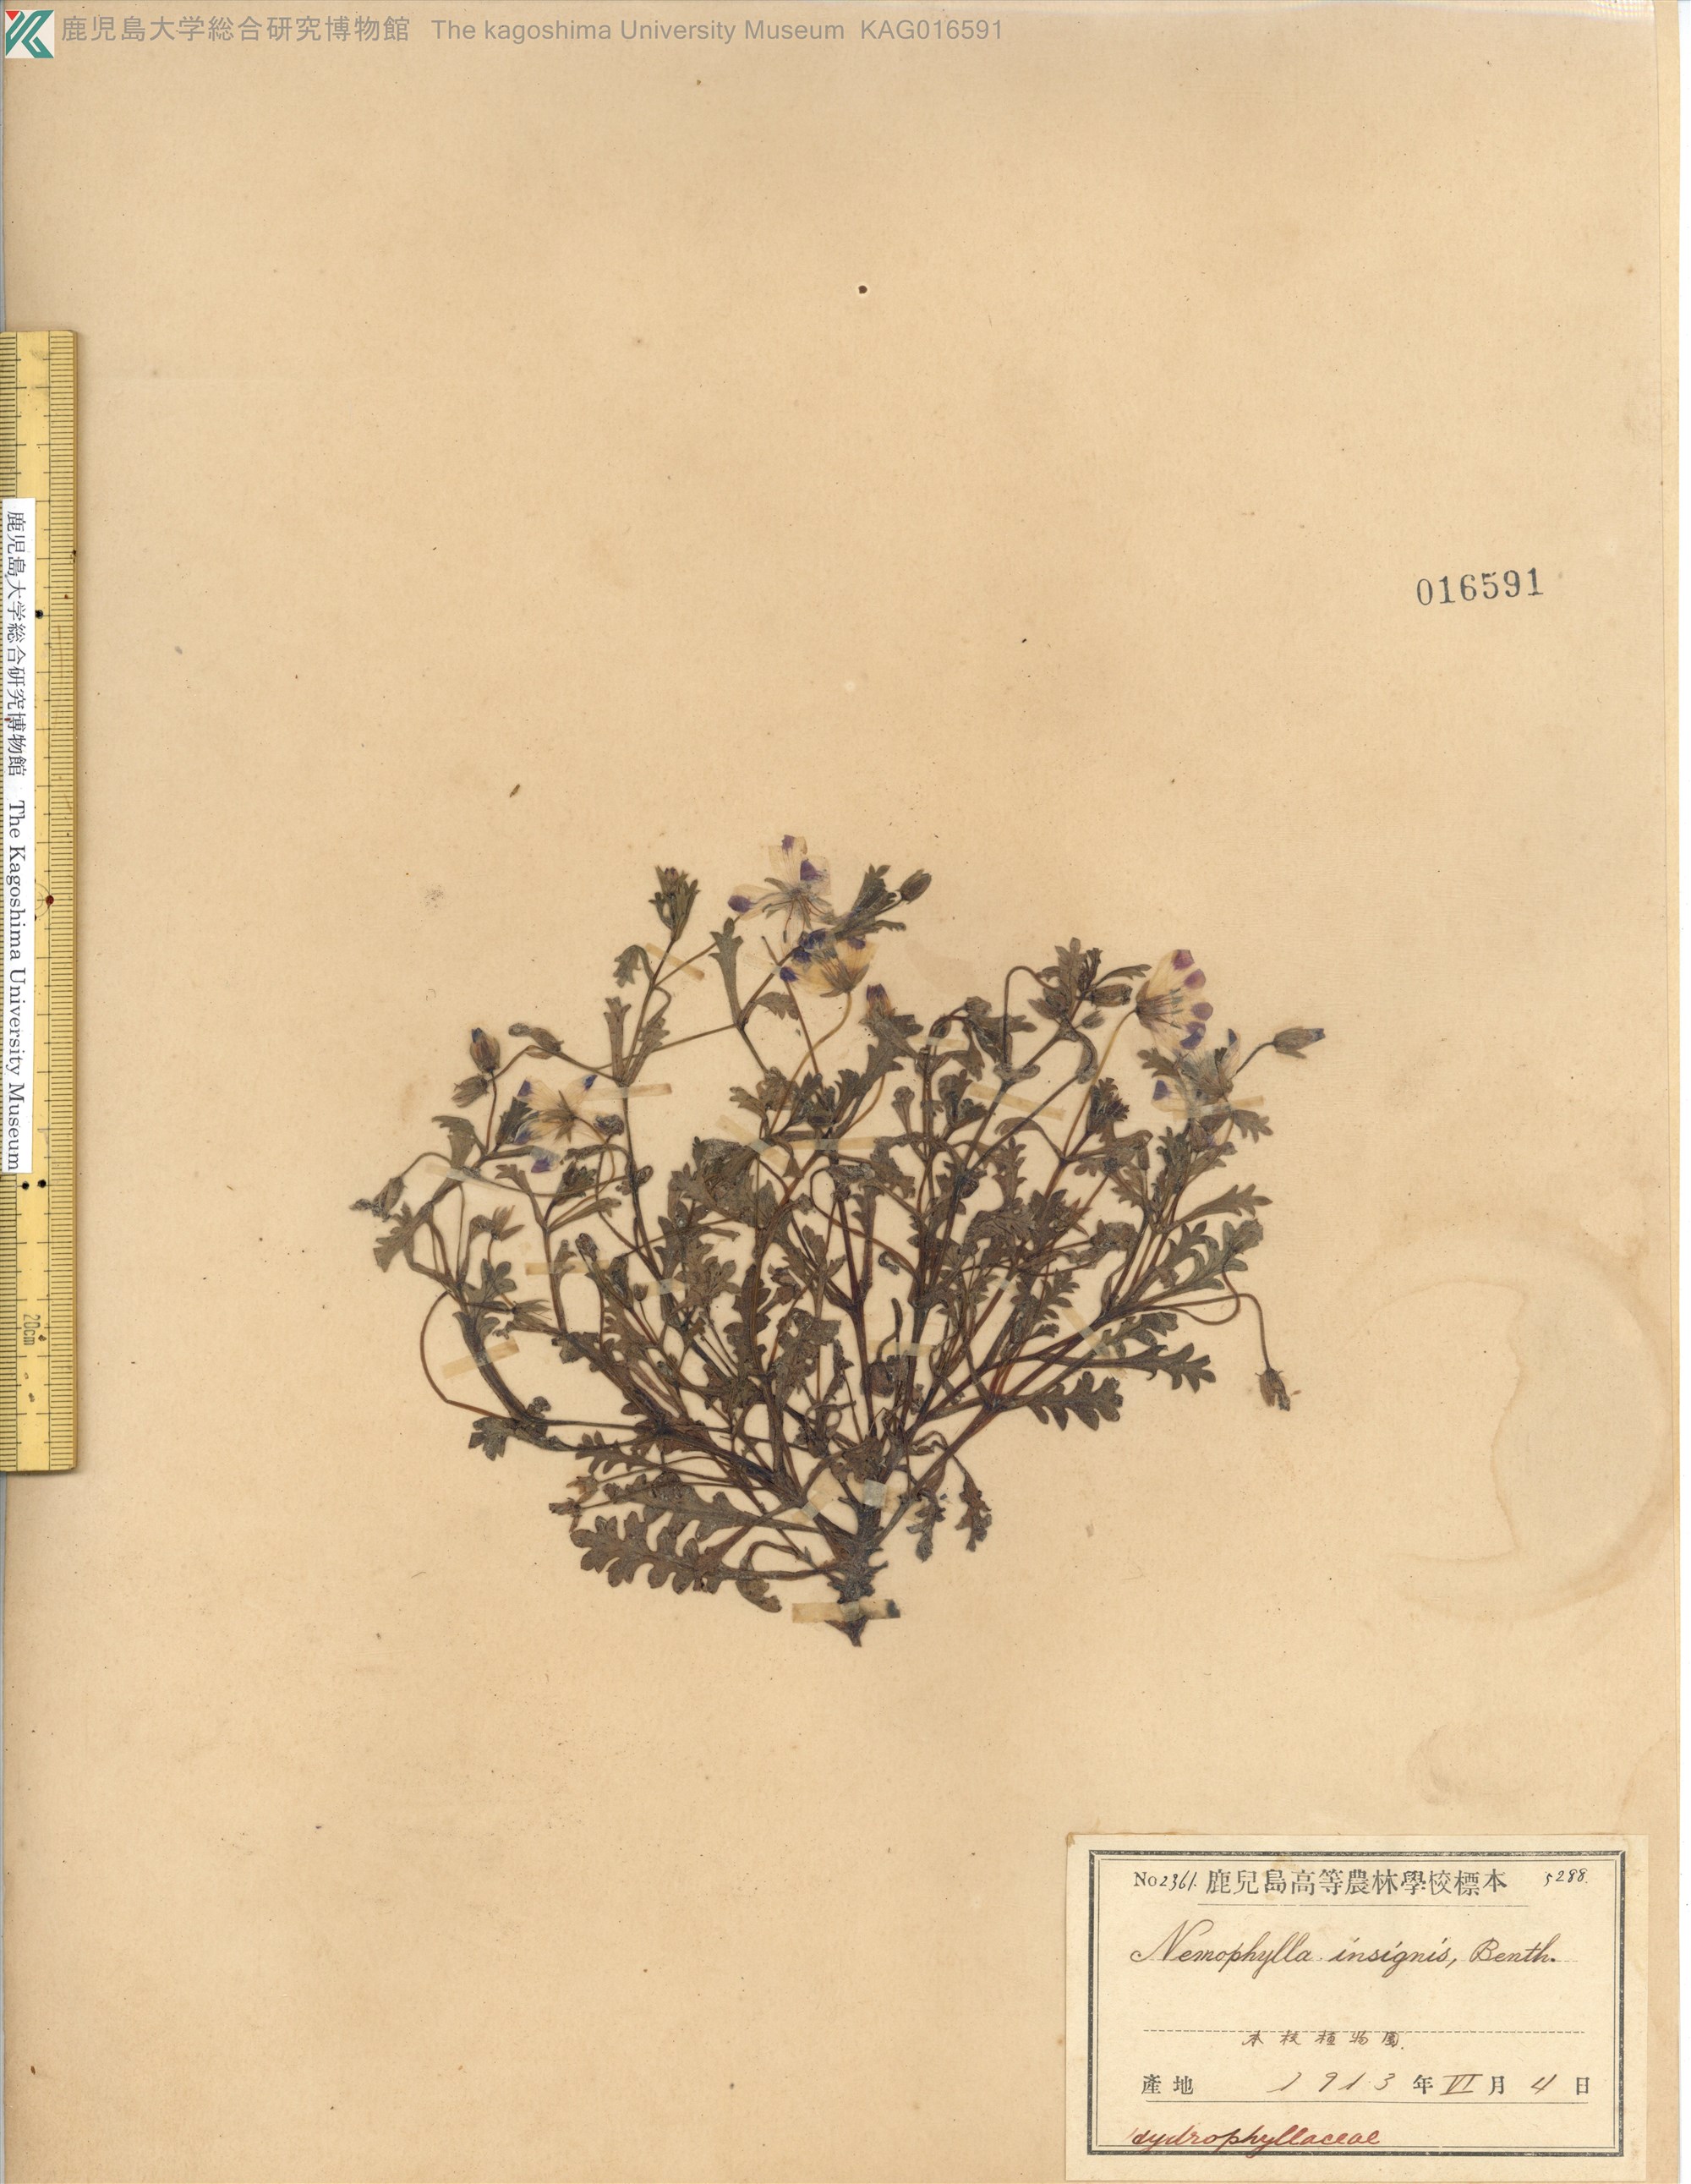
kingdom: Plantae
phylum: Tracheophyta
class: Magnoliopsida
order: Boraginales
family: Hydrophyllaceae
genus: Nemophila
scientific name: Nemophila menziesii
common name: Baby's-blue-eyes
